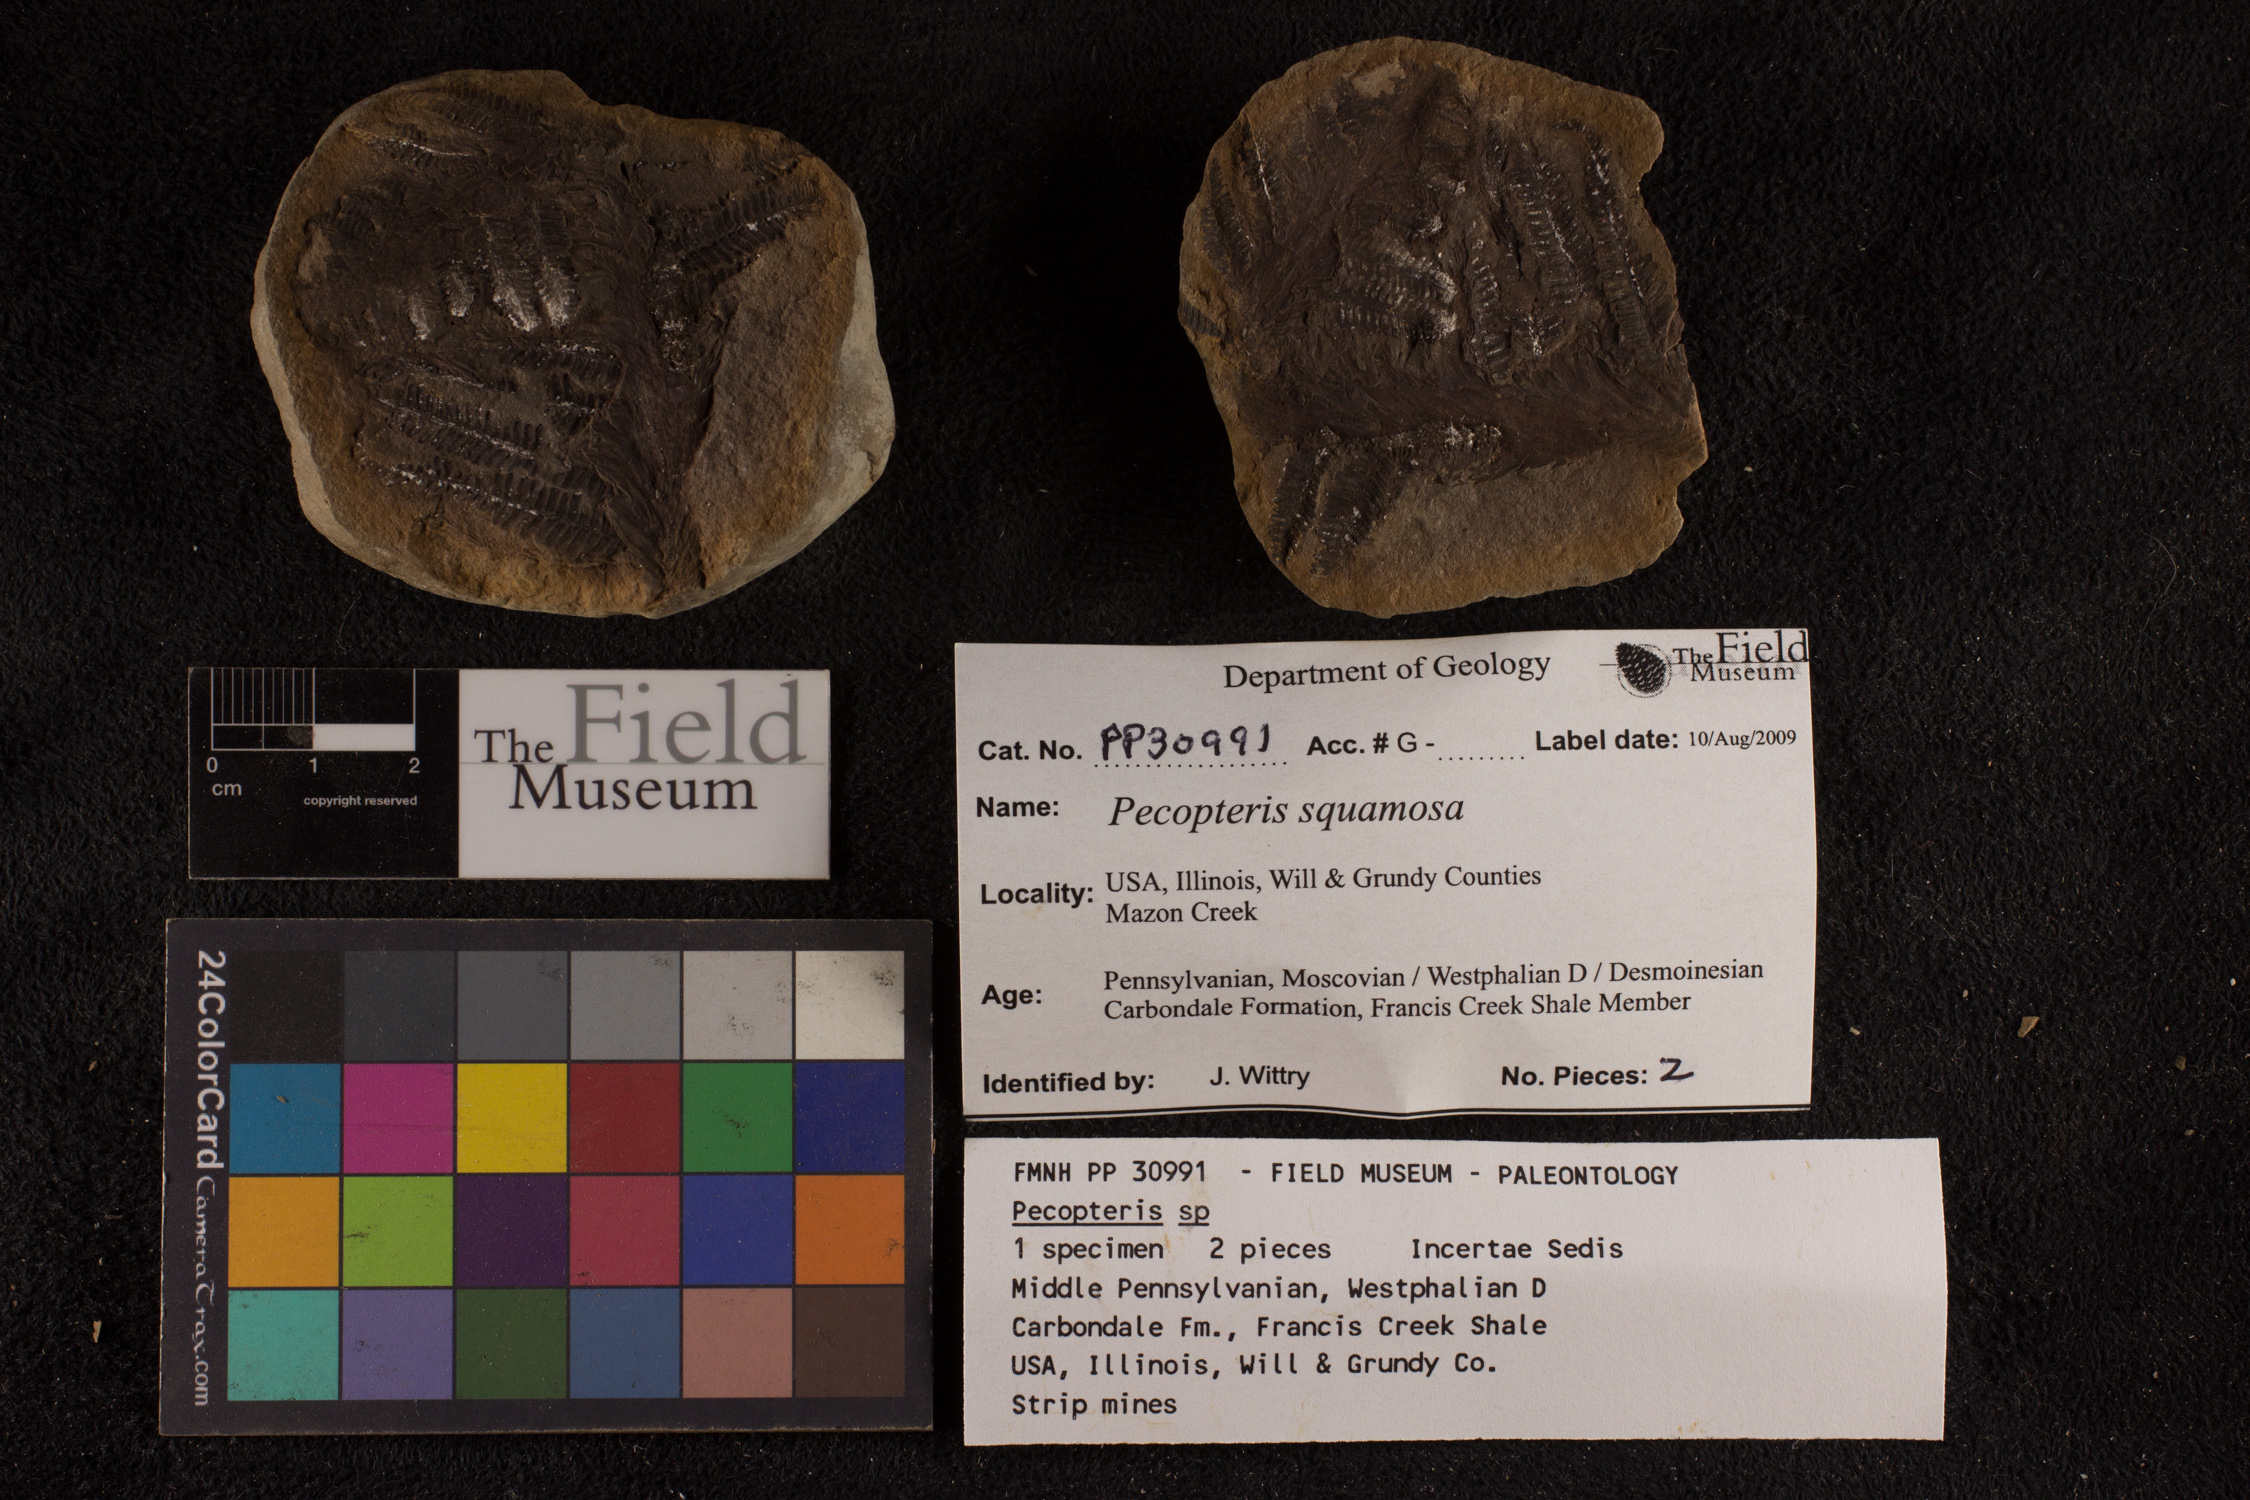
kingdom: Plantae
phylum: Tracheophyta
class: Polypodiopsida
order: Marattiales
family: Asterothecaceae
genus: Pecopteris
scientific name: Pecopteris
